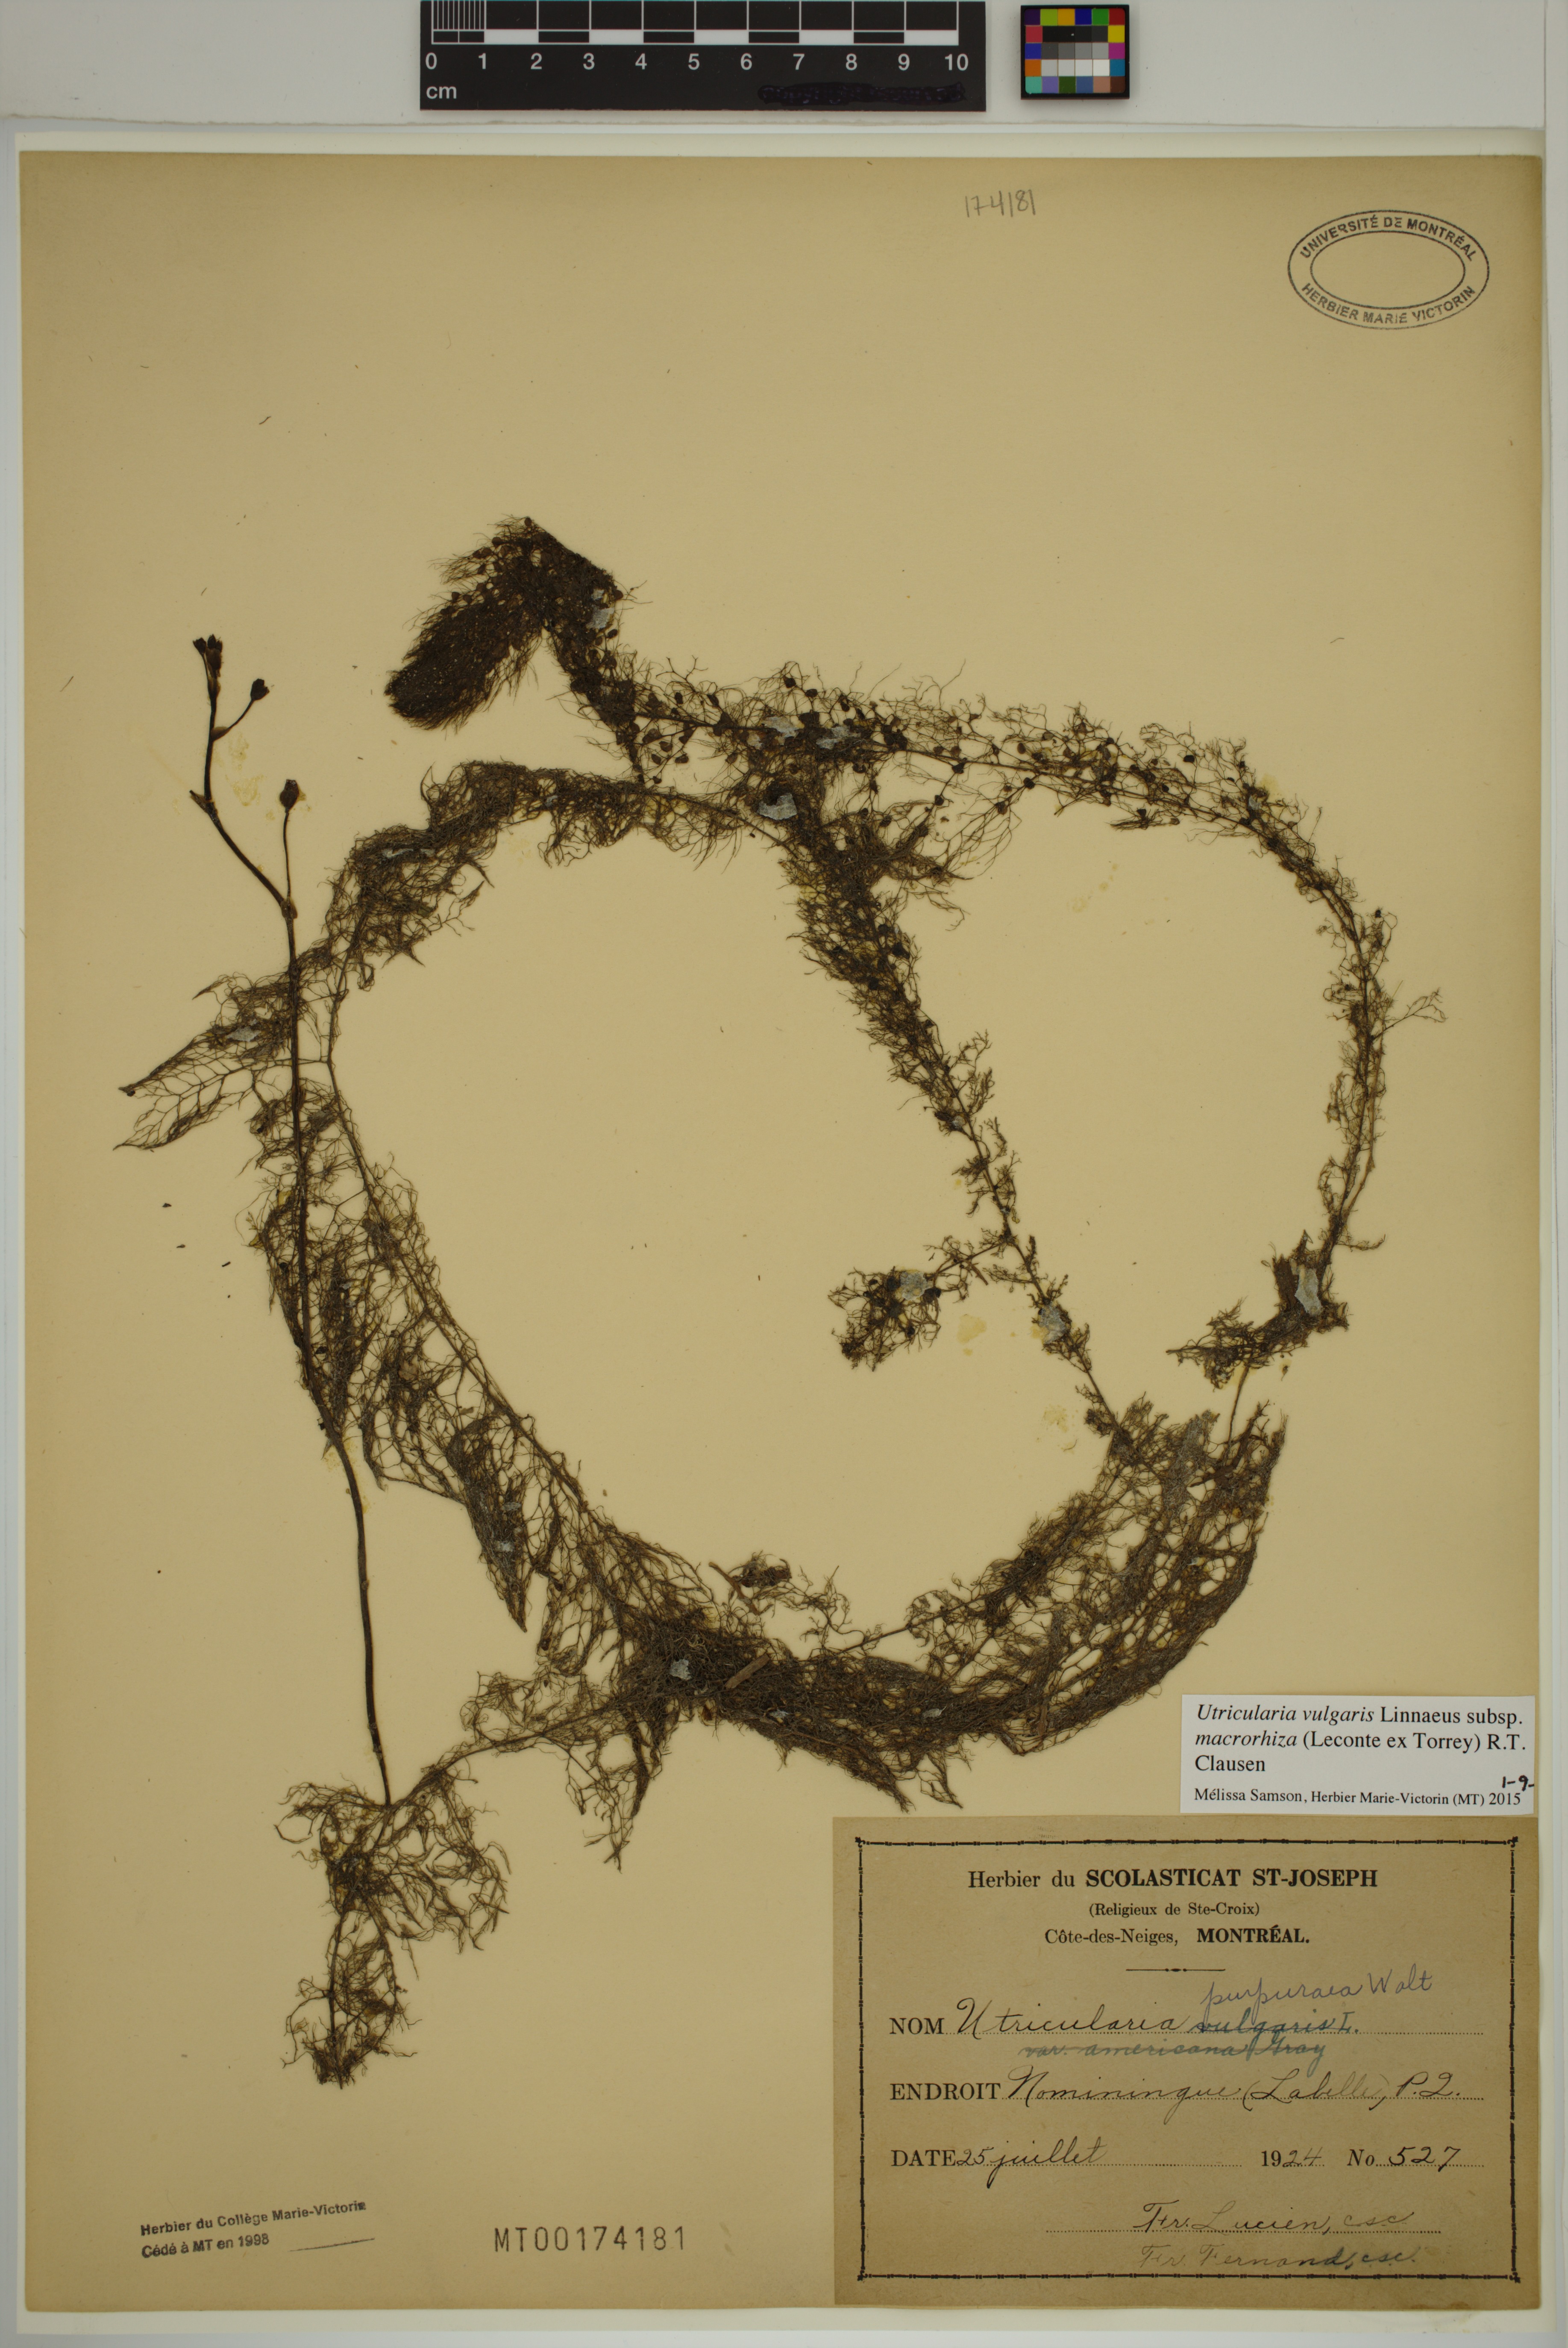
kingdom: Plantae
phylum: Tracheophyta
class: Magnoliopsida
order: Lamiales
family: Lentibulariaceae
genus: Utricularia
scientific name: Utricularia macrorhiza
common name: Common bladderwort
